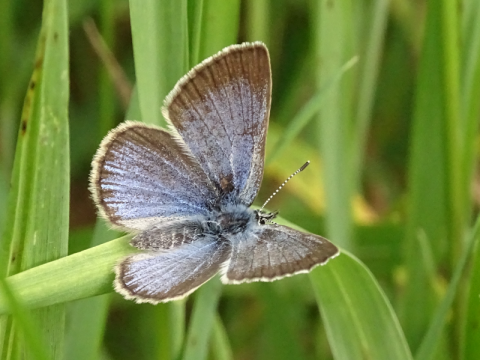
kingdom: Animalia
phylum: Arthropoda
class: Insecta
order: Lepidoptera
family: Lycaenidae
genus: Glaucopsyche
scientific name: Glaucopsyche lygdamus
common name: Silvery Blue
